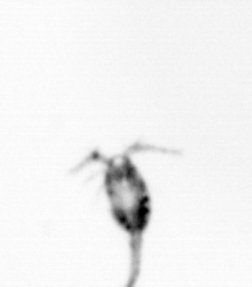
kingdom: Animalia
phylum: Arthropoda
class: Copepoda
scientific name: Copepoda
